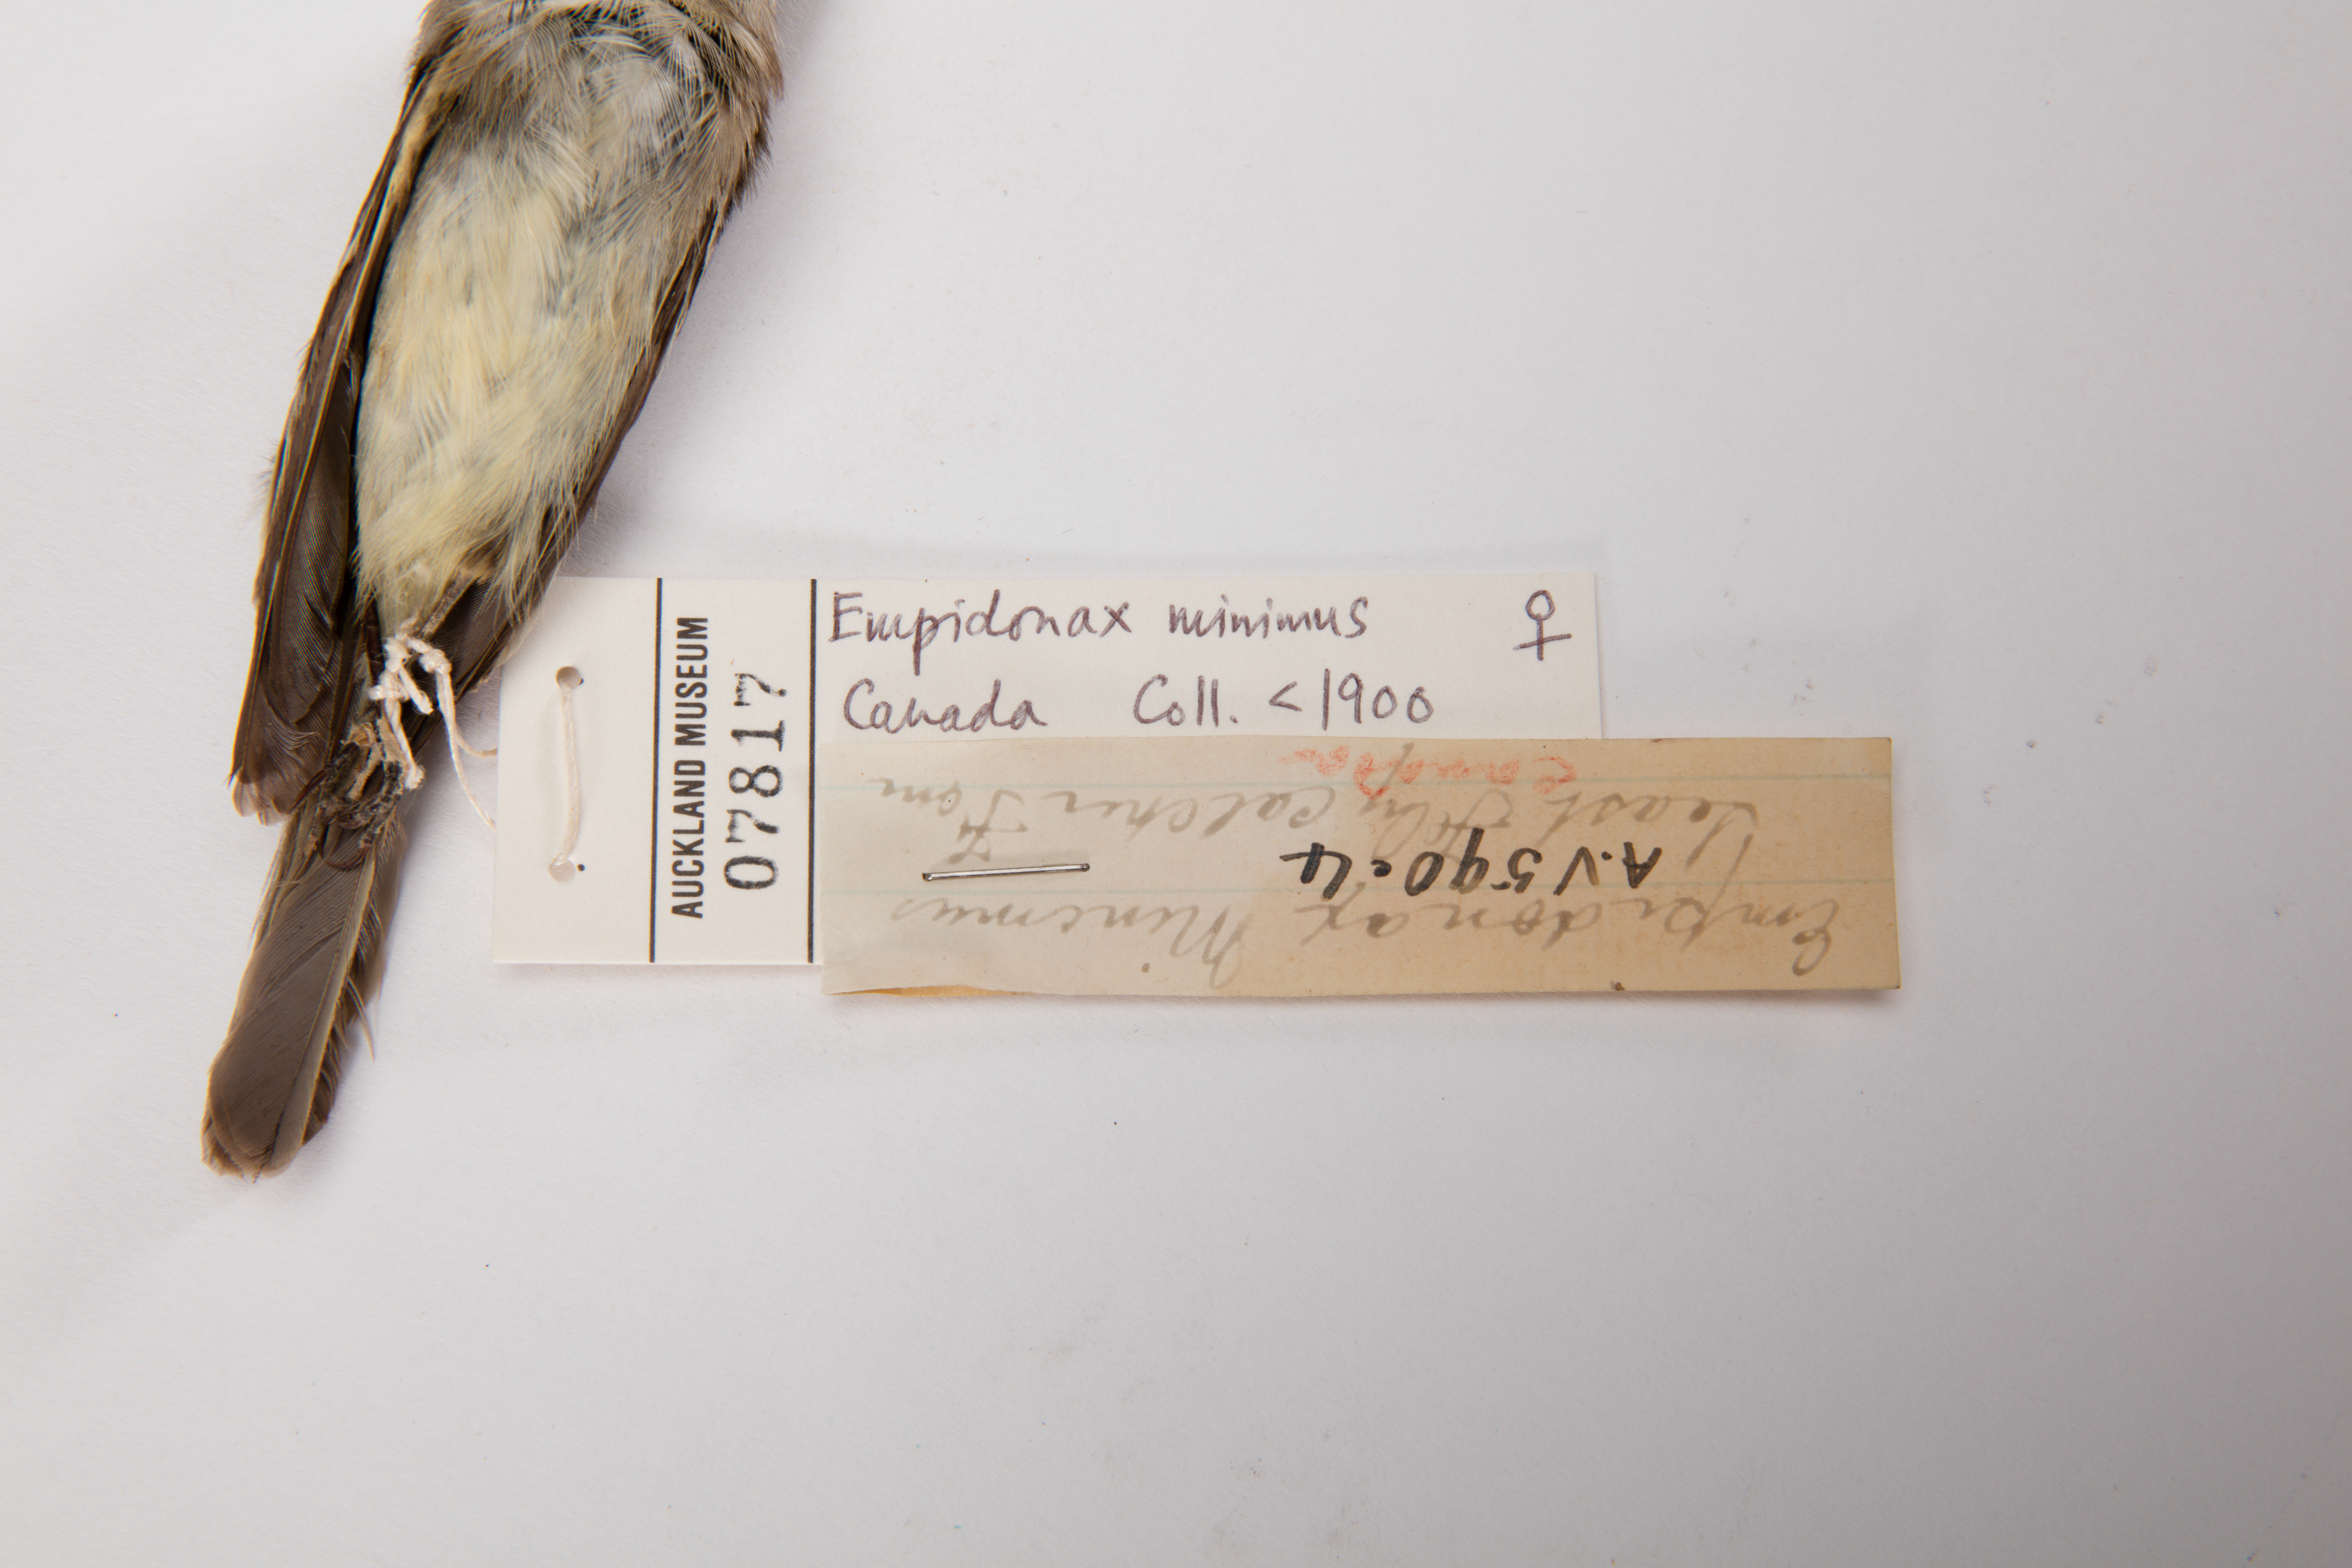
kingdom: Animalia
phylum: Chordata
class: Aves
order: Passeriformes
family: Tyrannidae
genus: Empidonax
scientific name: Empidonax minimus
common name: Least flycatcher
